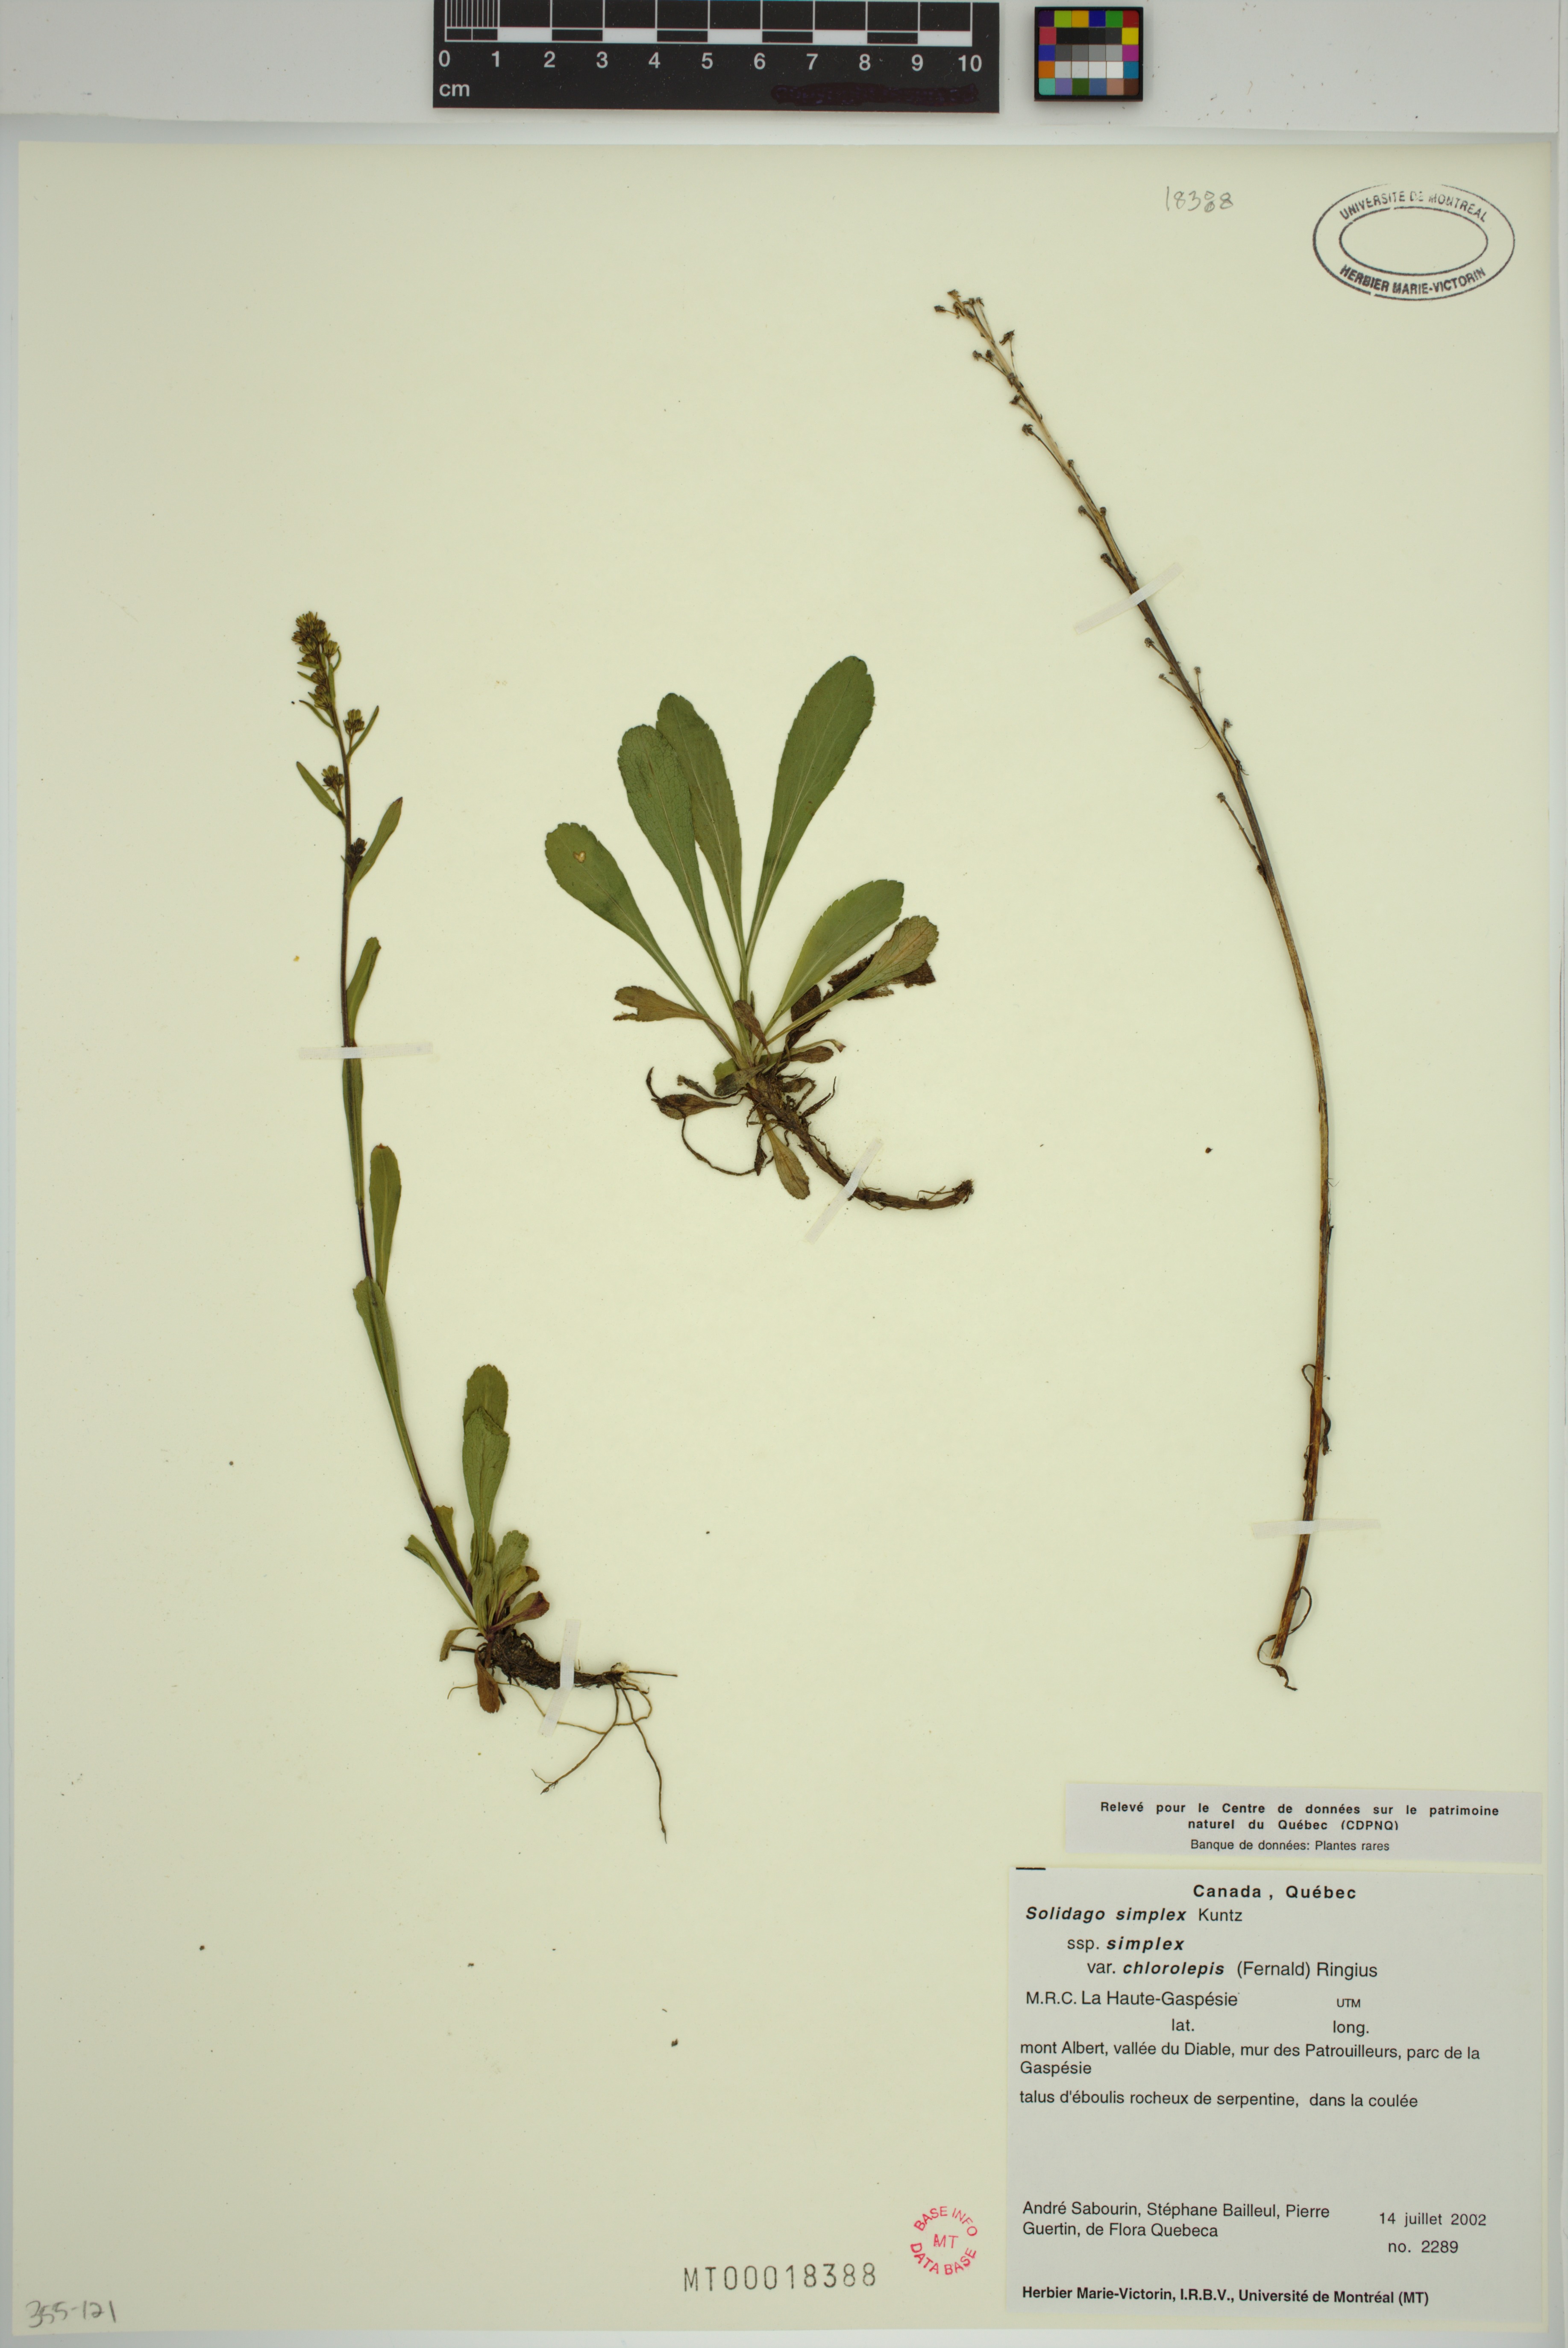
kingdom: Plantae
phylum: Tracheophyta
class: Magnoliopsida
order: Asterales
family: Asteraceae
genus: Solidago
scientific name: Solidago chlorolepis
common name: Mt. albert goldenrod
